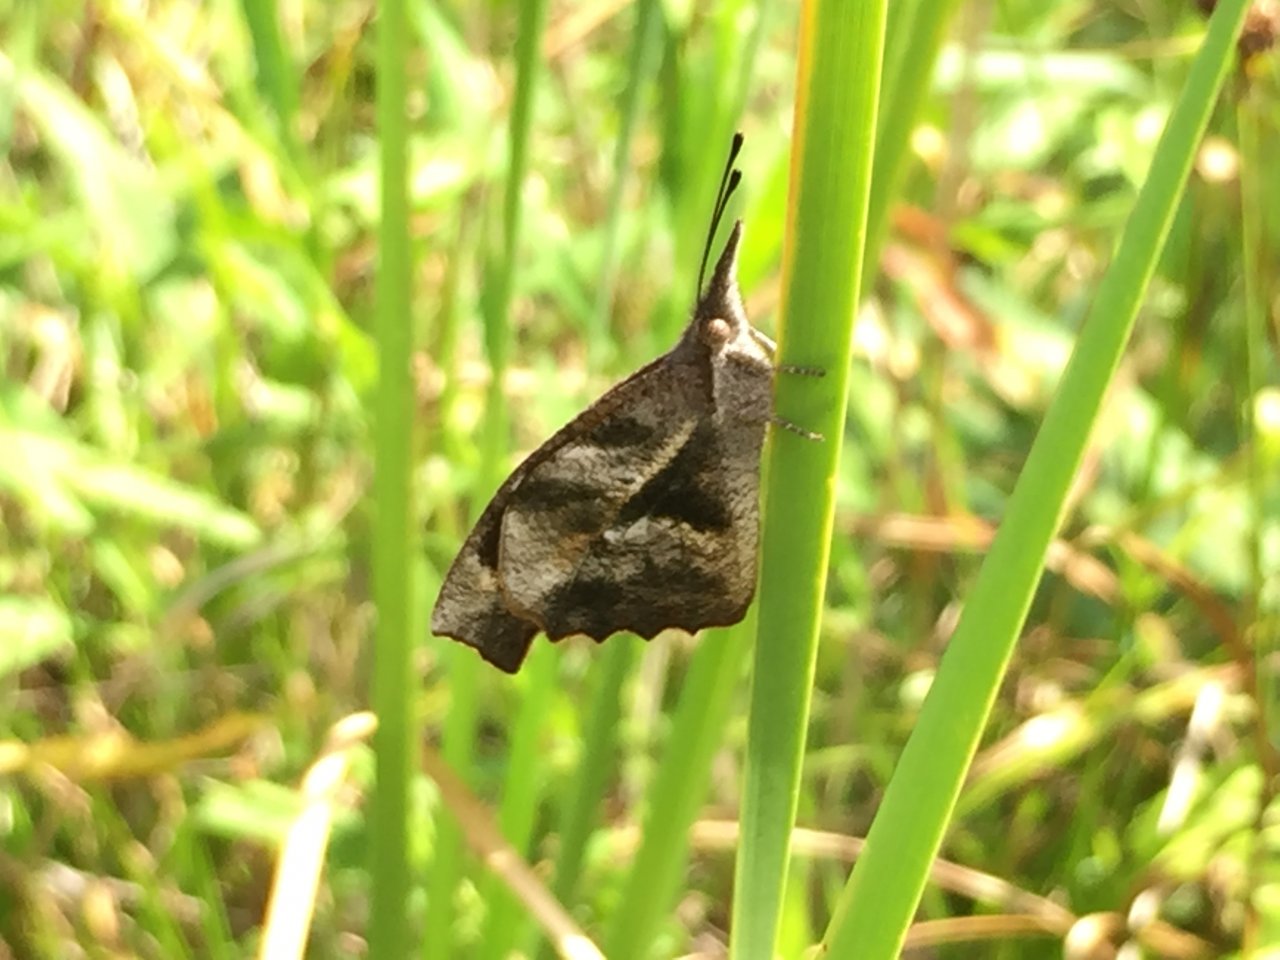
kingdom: Animalia
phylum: Arthropoda
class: Insecta
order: Lepidoptera
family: Nymphalidae
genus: Libytheana
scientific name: Libytheana carinenta
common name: American Snout
